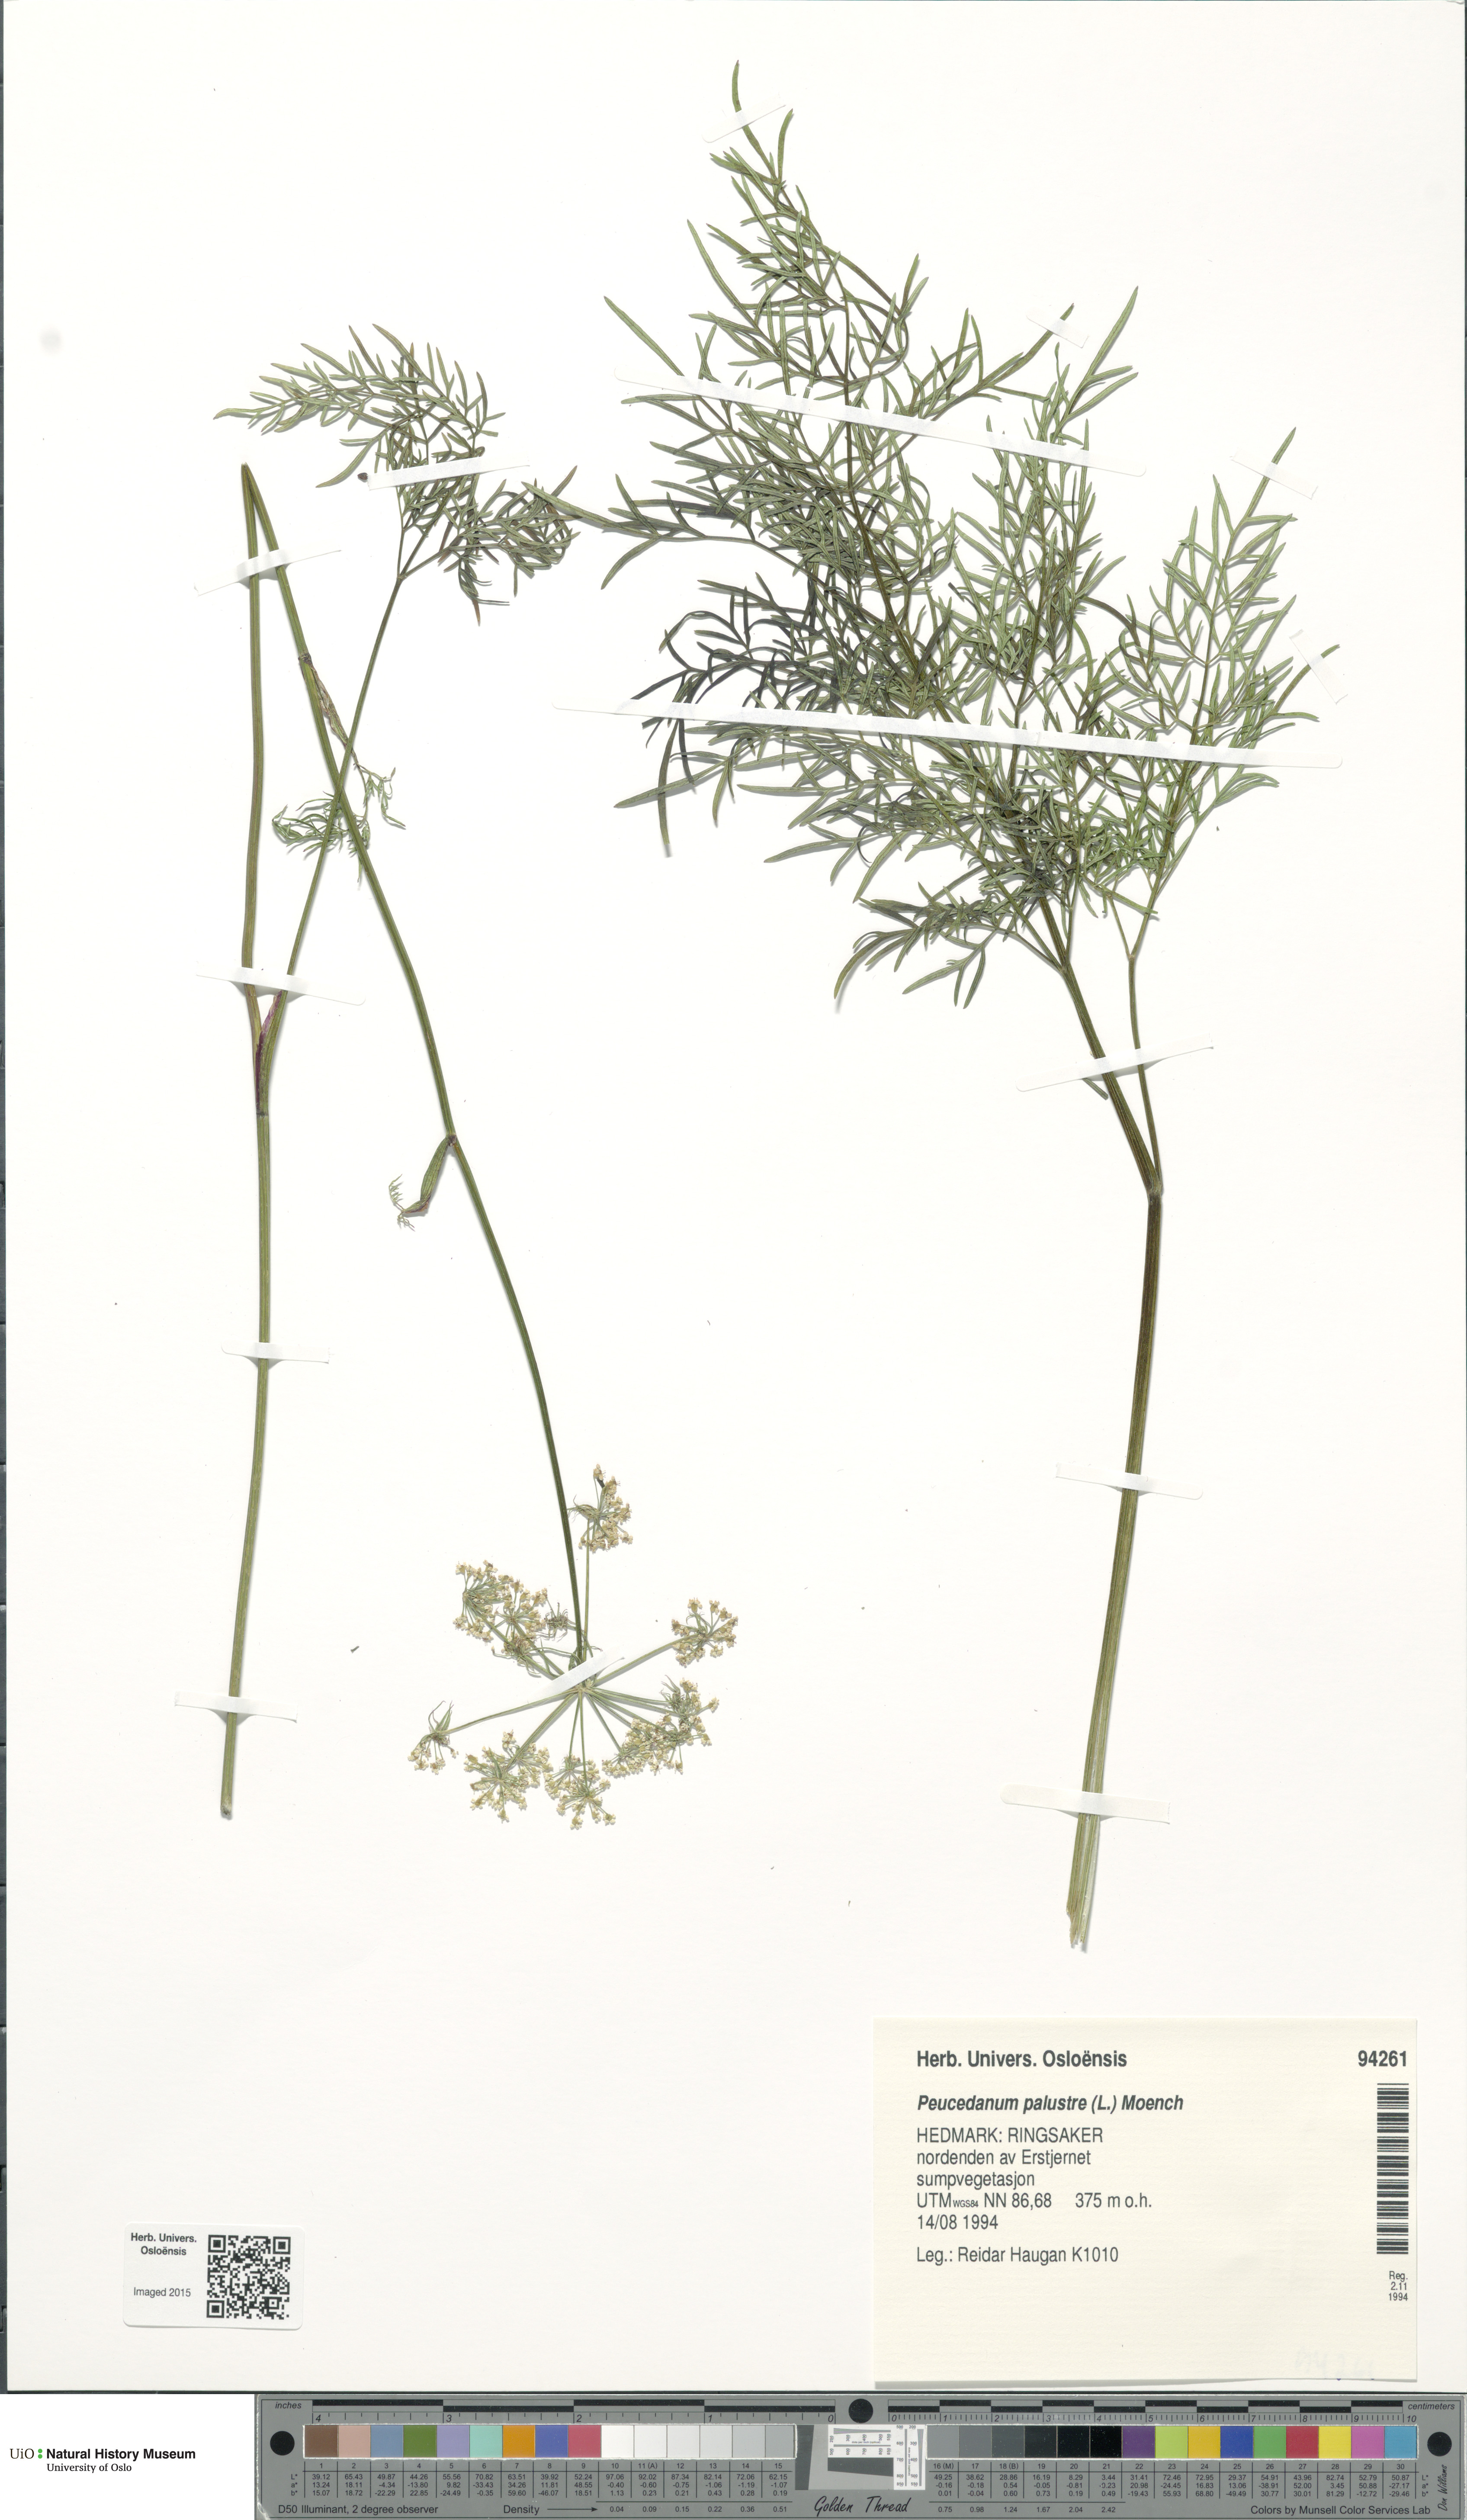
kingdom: Plantae
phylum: Tracheophyta
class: Magnoliopsida
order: Apiales
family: Apiaceae
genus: Thysselinum
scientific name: Thysselinum palustre
